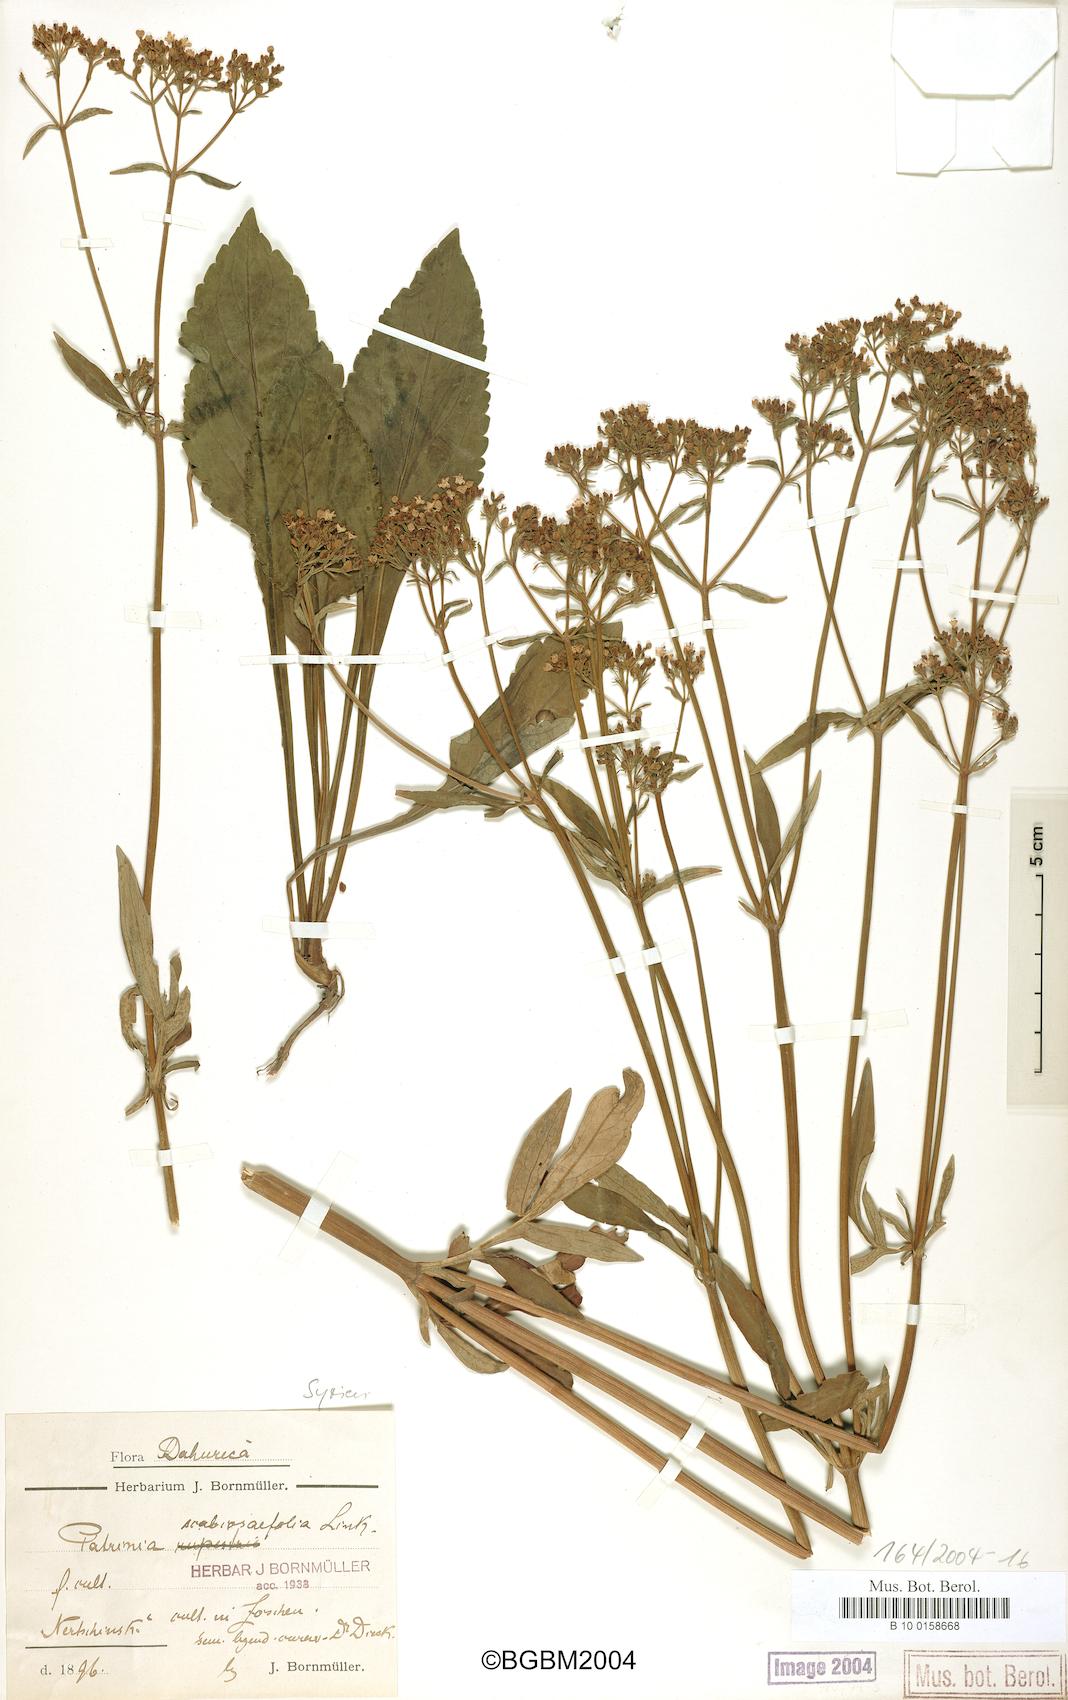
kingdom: Plantae
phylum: Tracheophyta
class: Magnoliopsida
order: Dipsacales
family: Caprifoliaceae
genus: Patrinia
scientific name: Patrinia scabiosifolia
